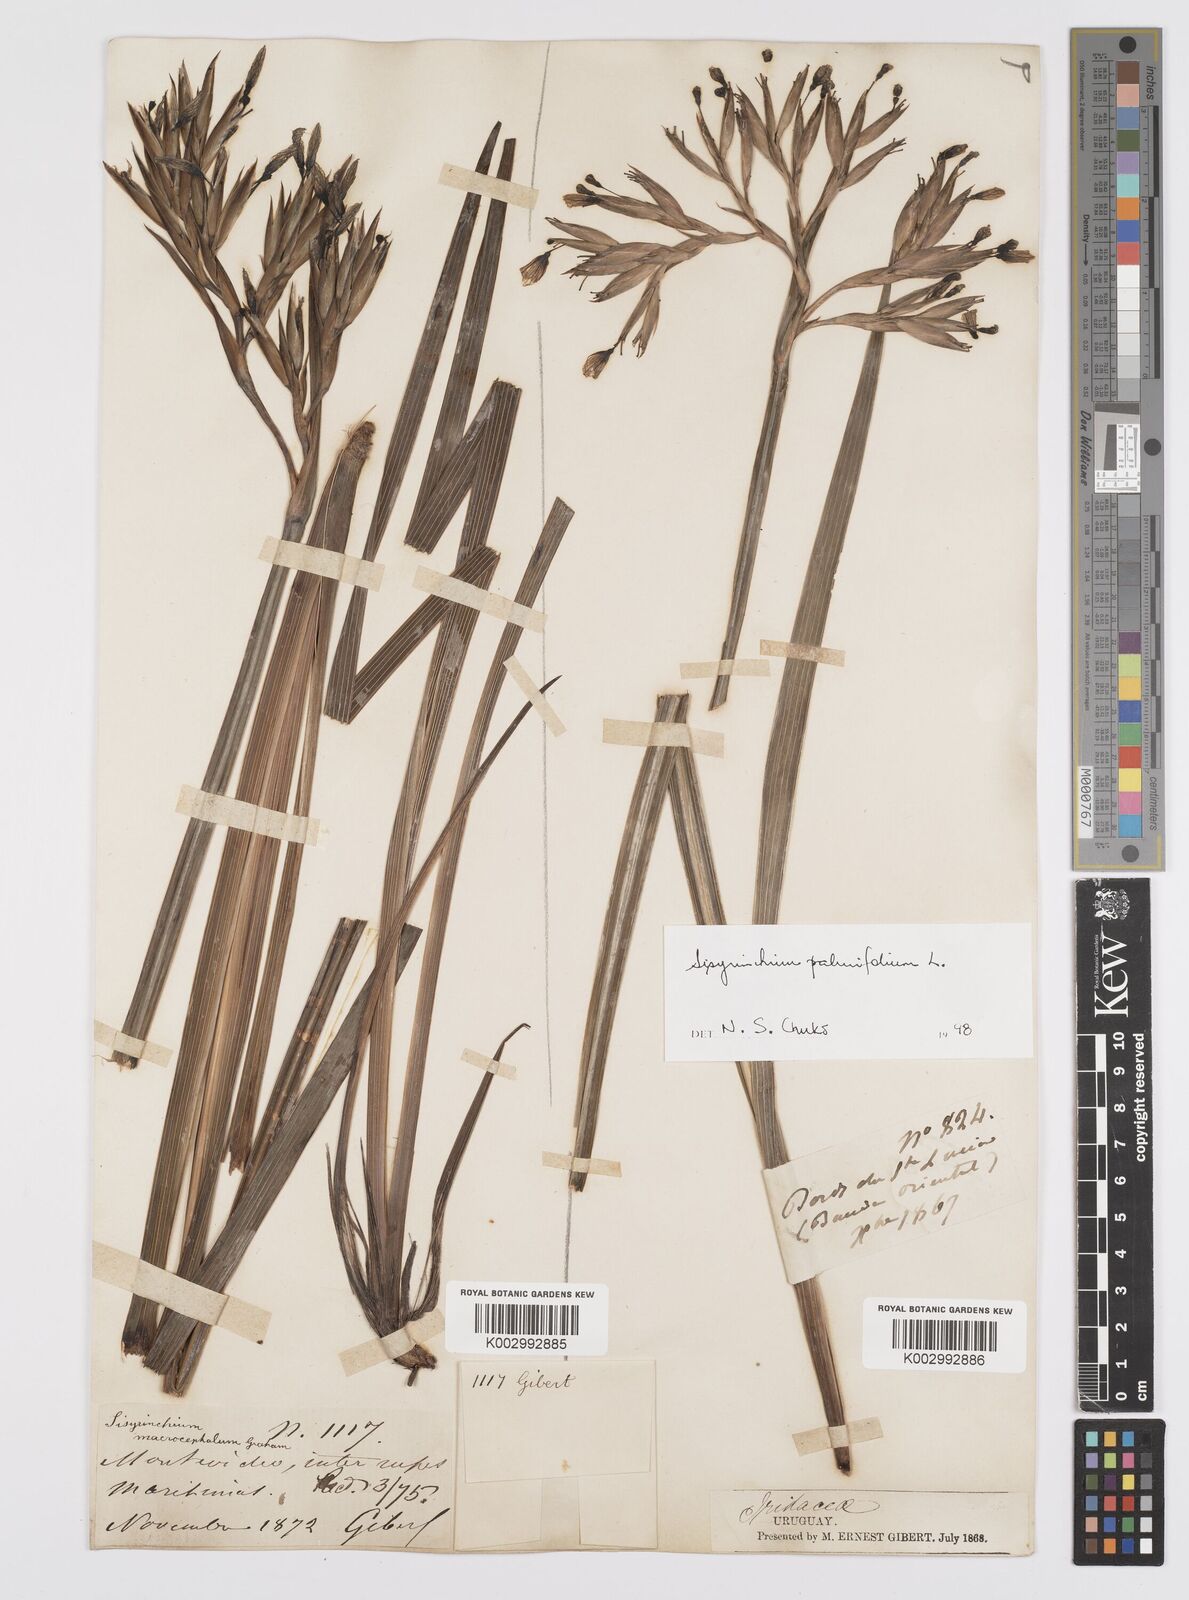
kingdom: Plantae
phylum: Tracheophyta
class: Liliopsida
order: Asparagales
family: Iridaceae
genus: Sisyrinchium
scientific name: Sisyrinchium palmifolium
